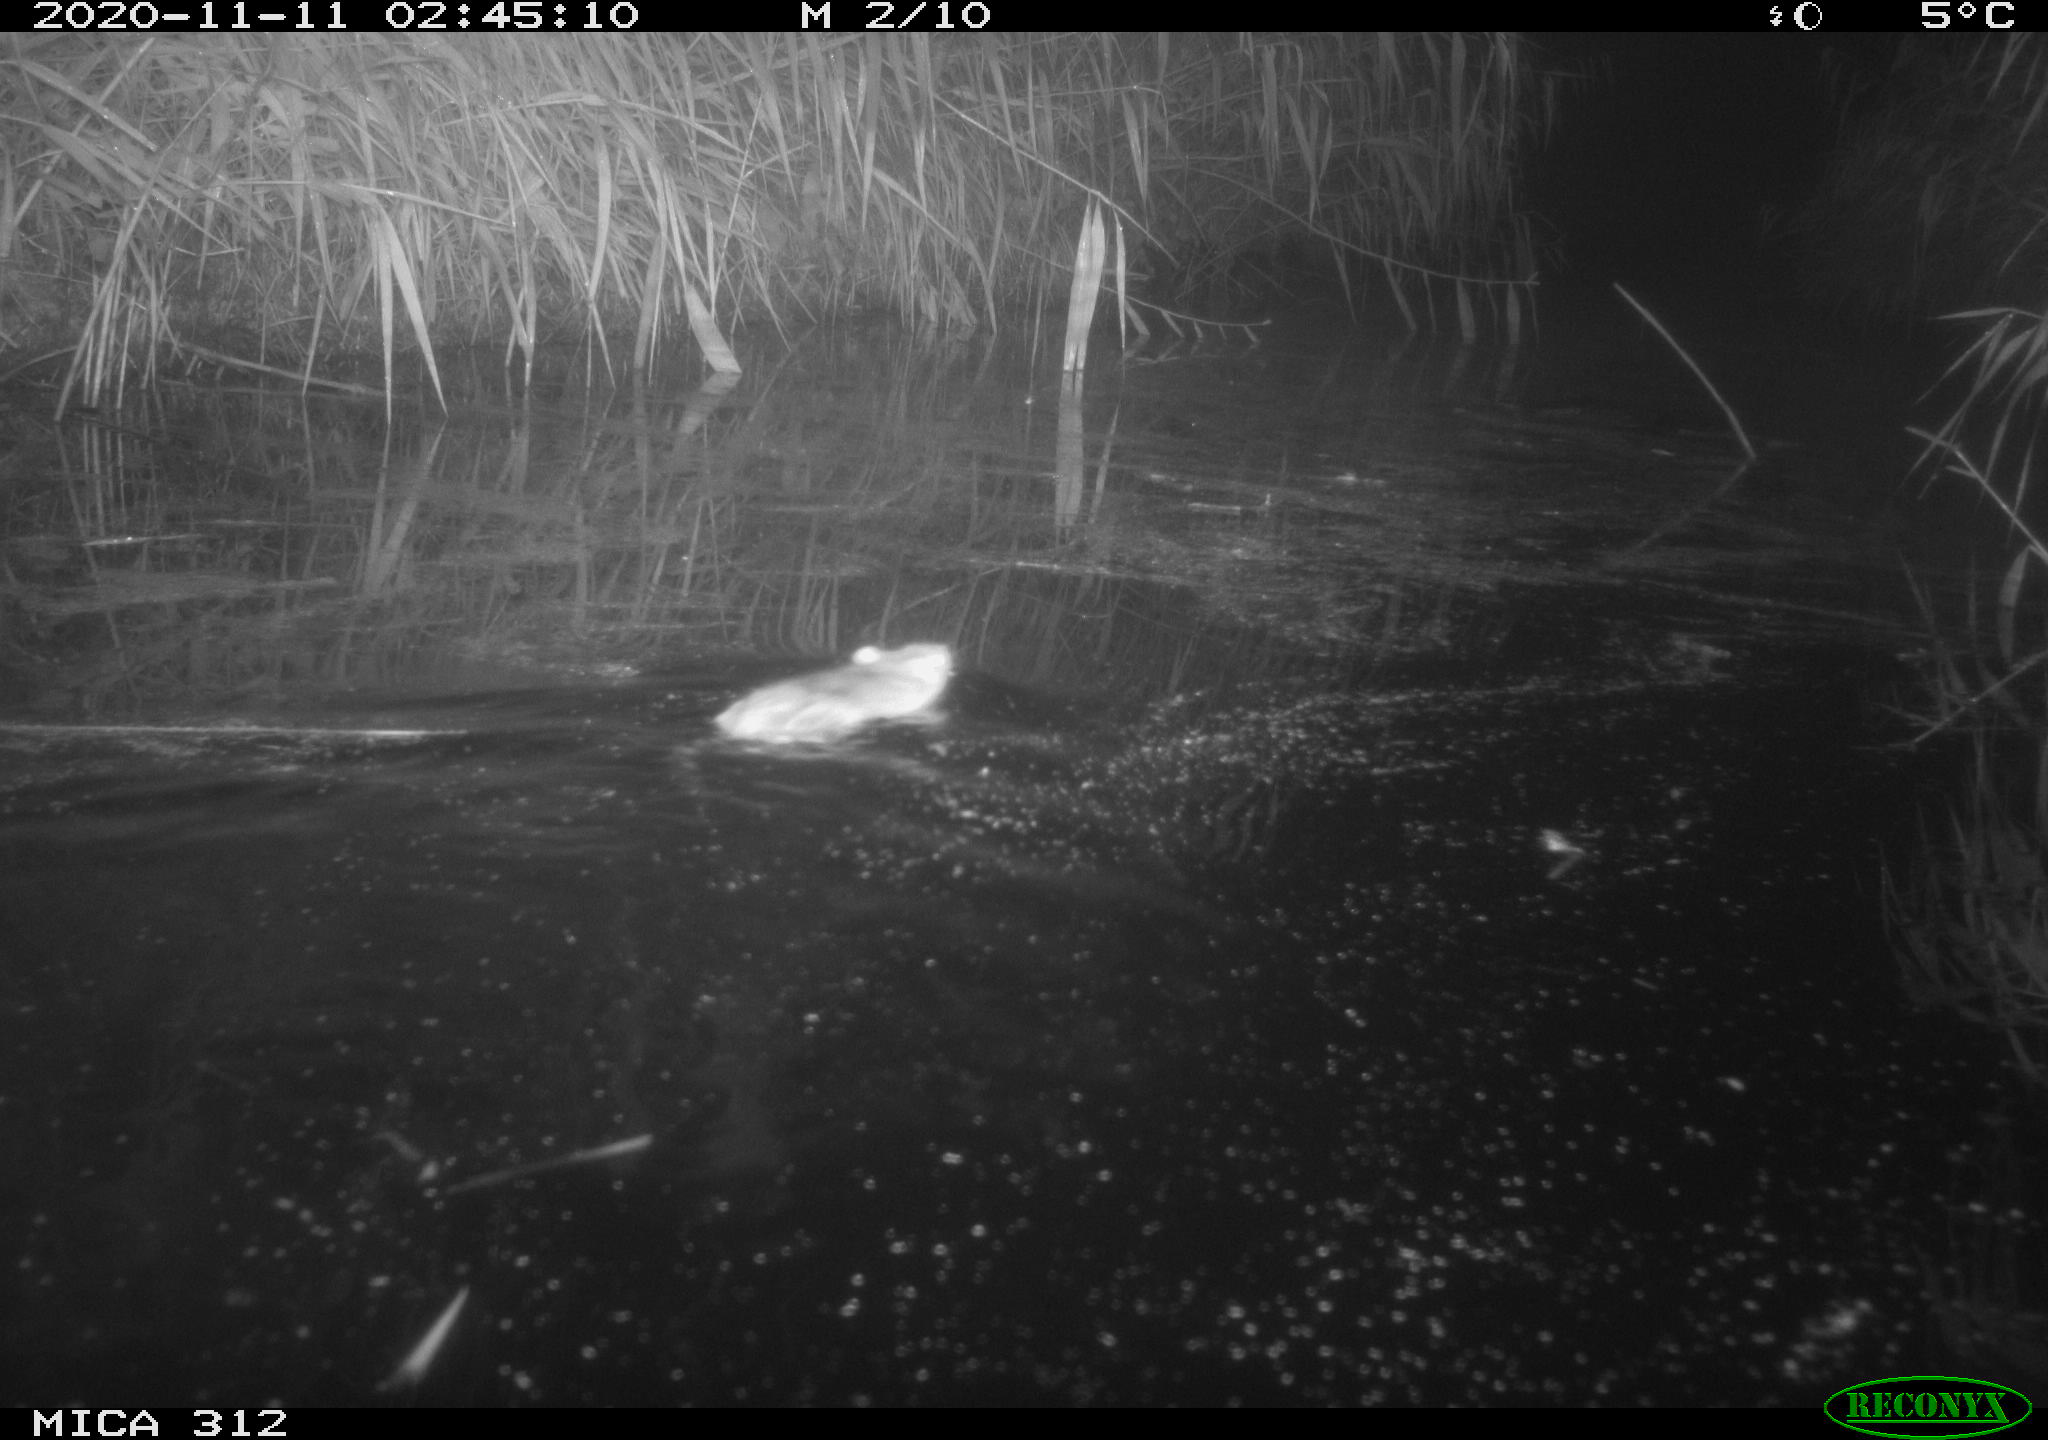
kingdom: Animalia
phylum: Chordata
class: Mammalia
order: Rodentia
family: Muridae
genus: Rattus
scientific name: Rattus norvegicus
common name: Brown rat
